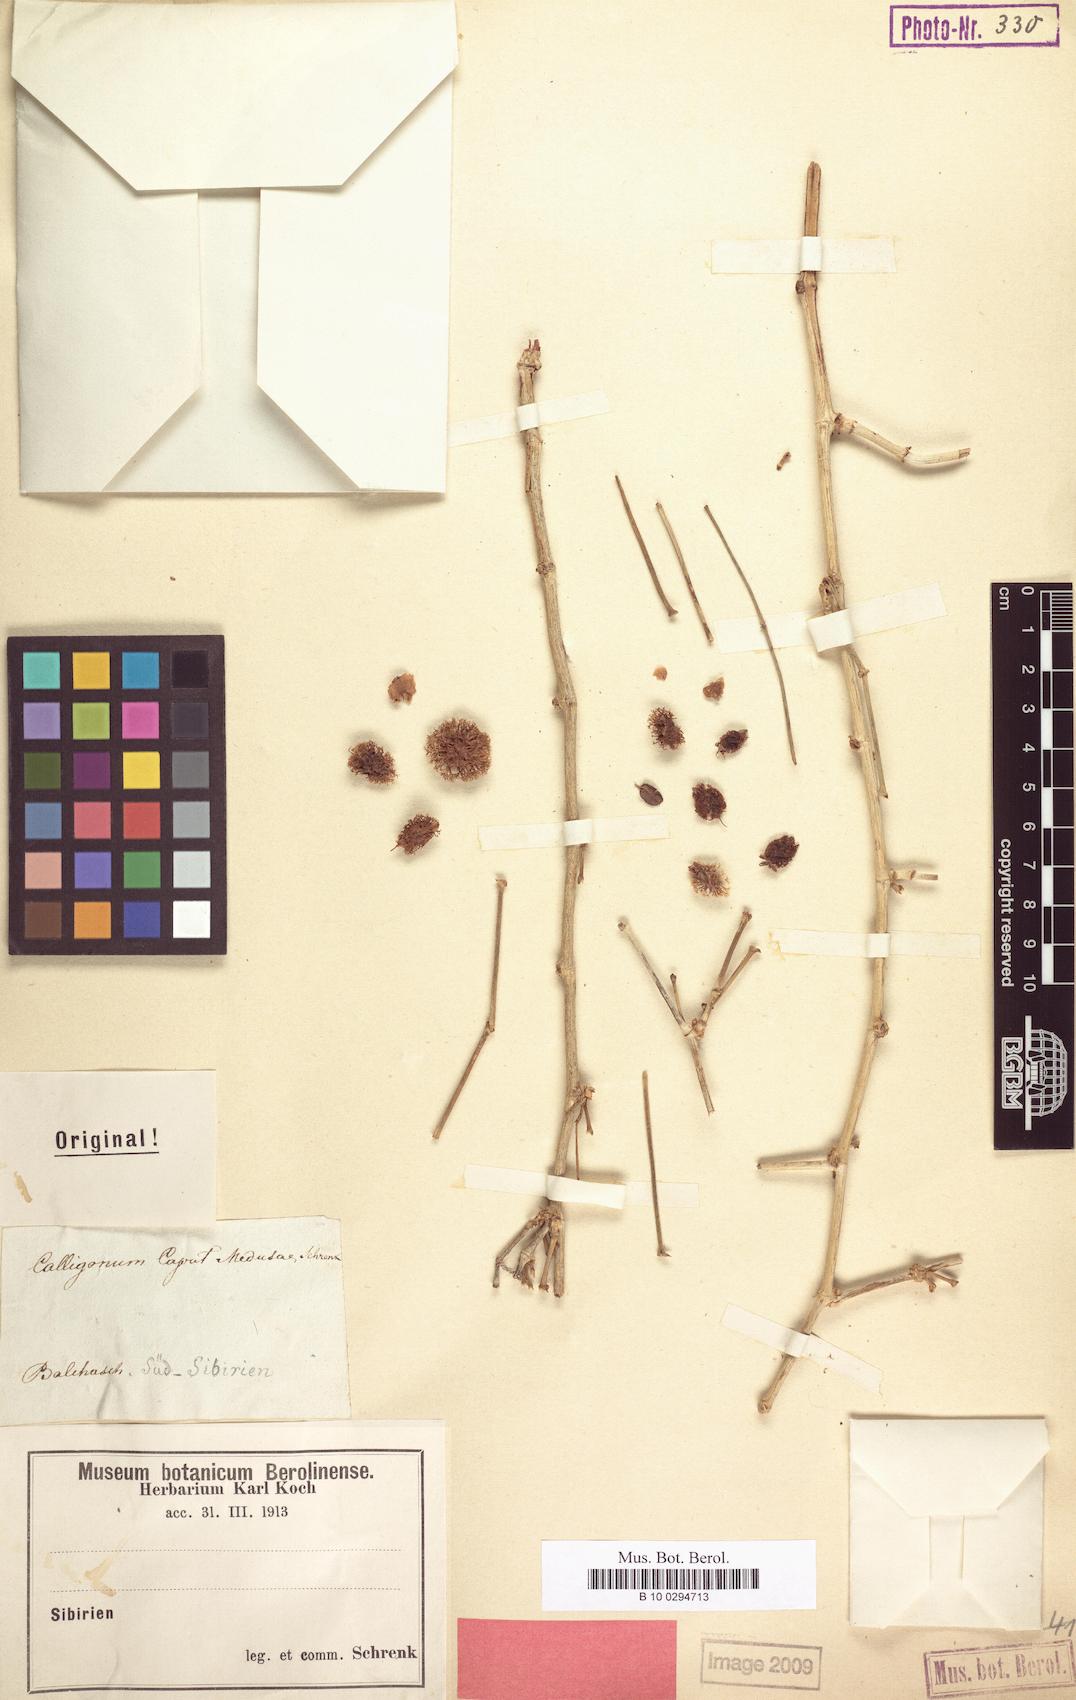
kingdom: Plantae
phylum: Tracheophyta
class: Magnoliopsida
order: Caryophyllales
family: Polygonaceae
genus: Calligonum
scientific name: Calligonum caput-medusae
